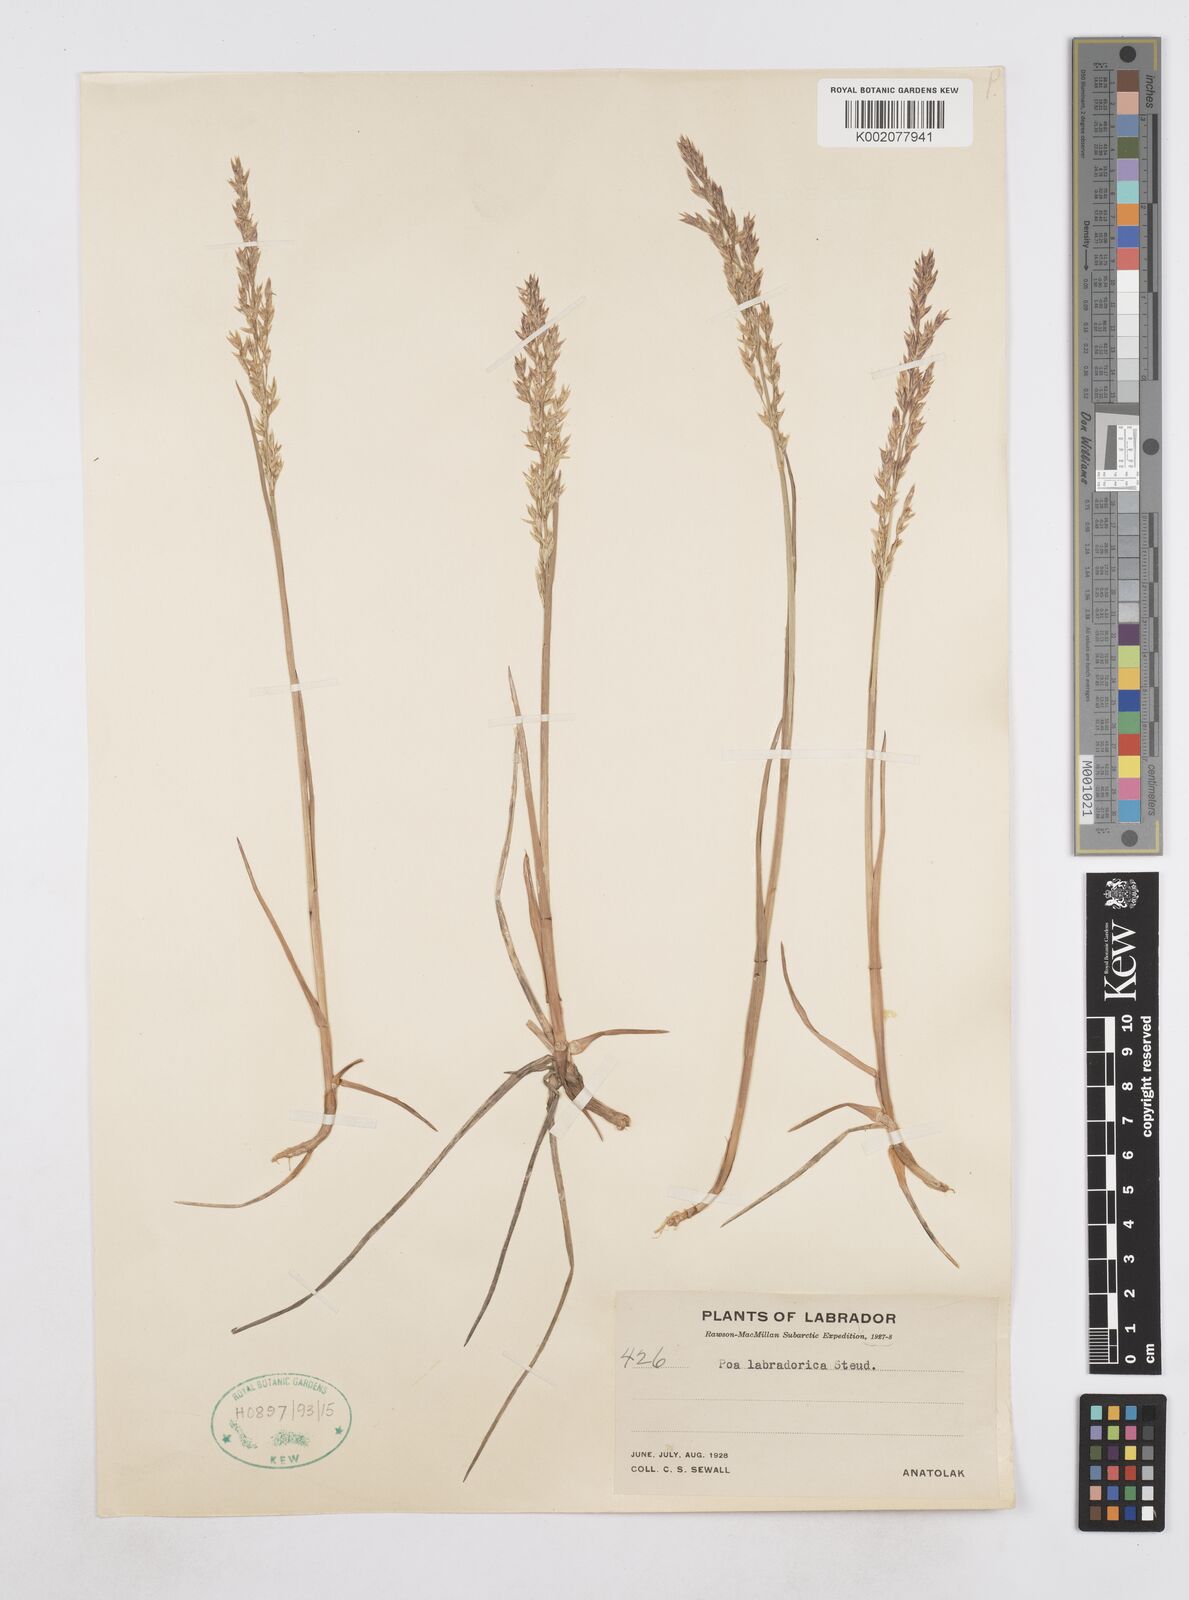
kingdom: Plantae
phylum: Tracheophyta
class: Liliopsida
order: Poales
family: Poaceae
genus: Arctopoa
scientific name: Arctopoa eminens
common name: Eminent bluegrass
